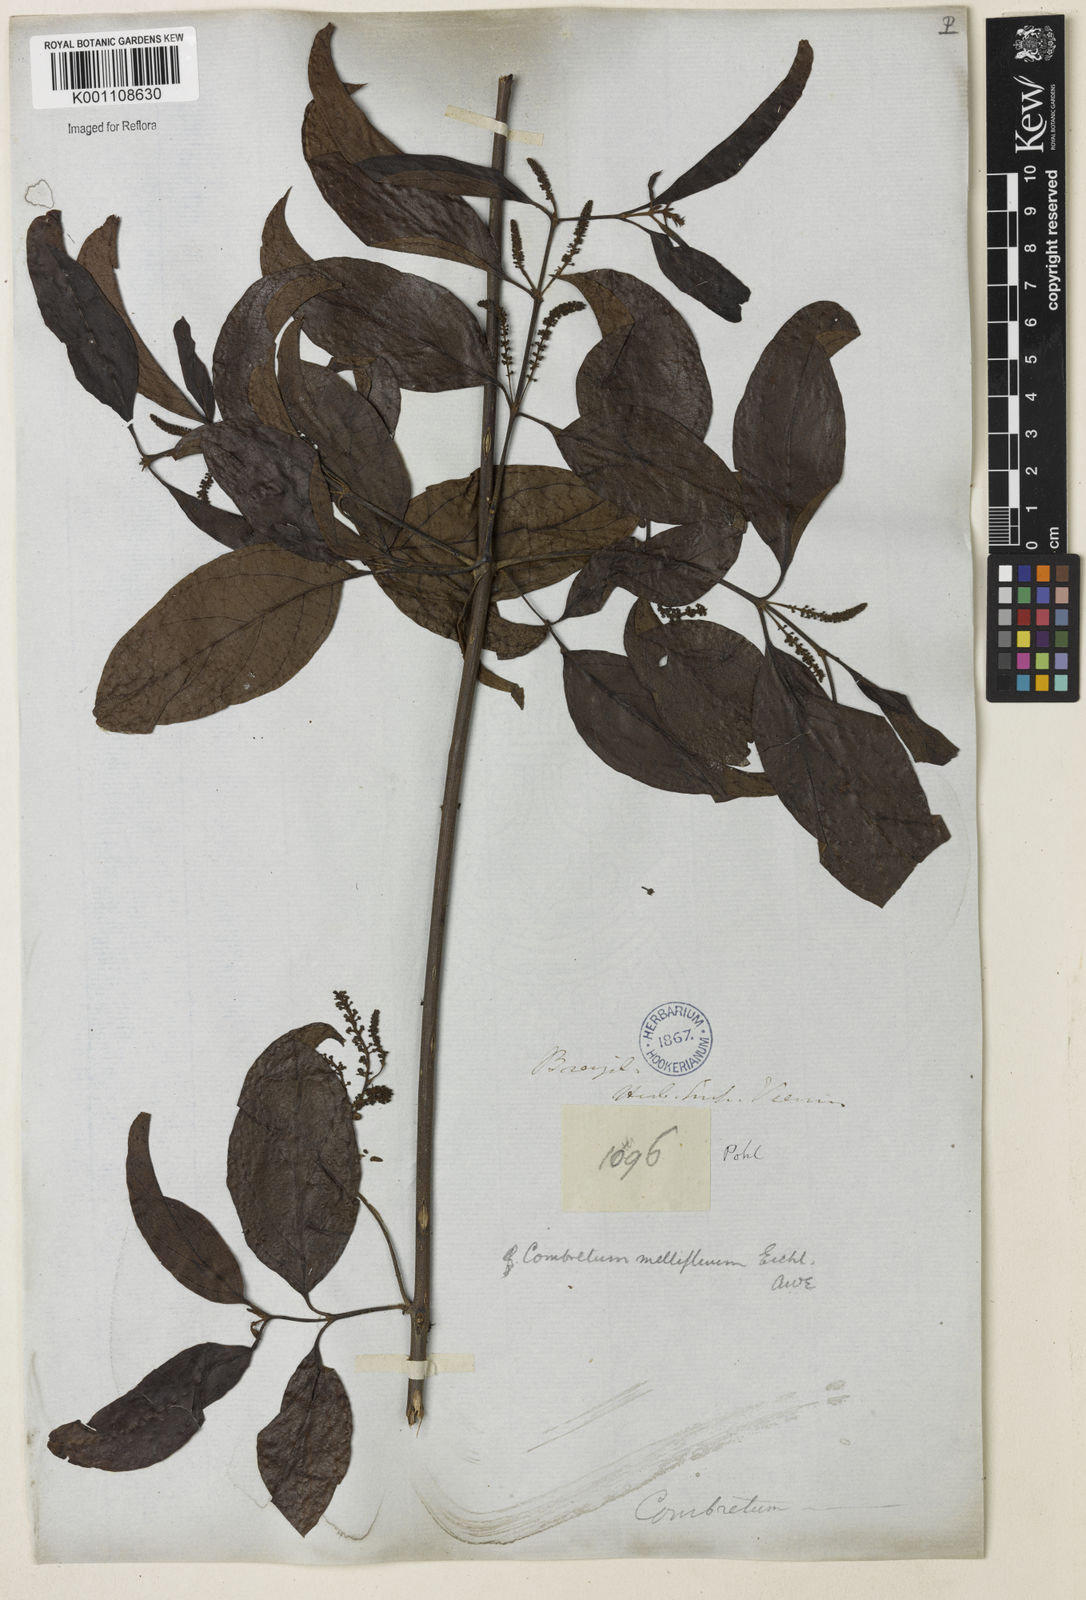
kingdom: Plantae
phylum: Tracheophyta
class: Magnoliopsida
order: Myrtales
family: Combretaceae
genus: Combretum
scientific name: Combretum mellifluum
